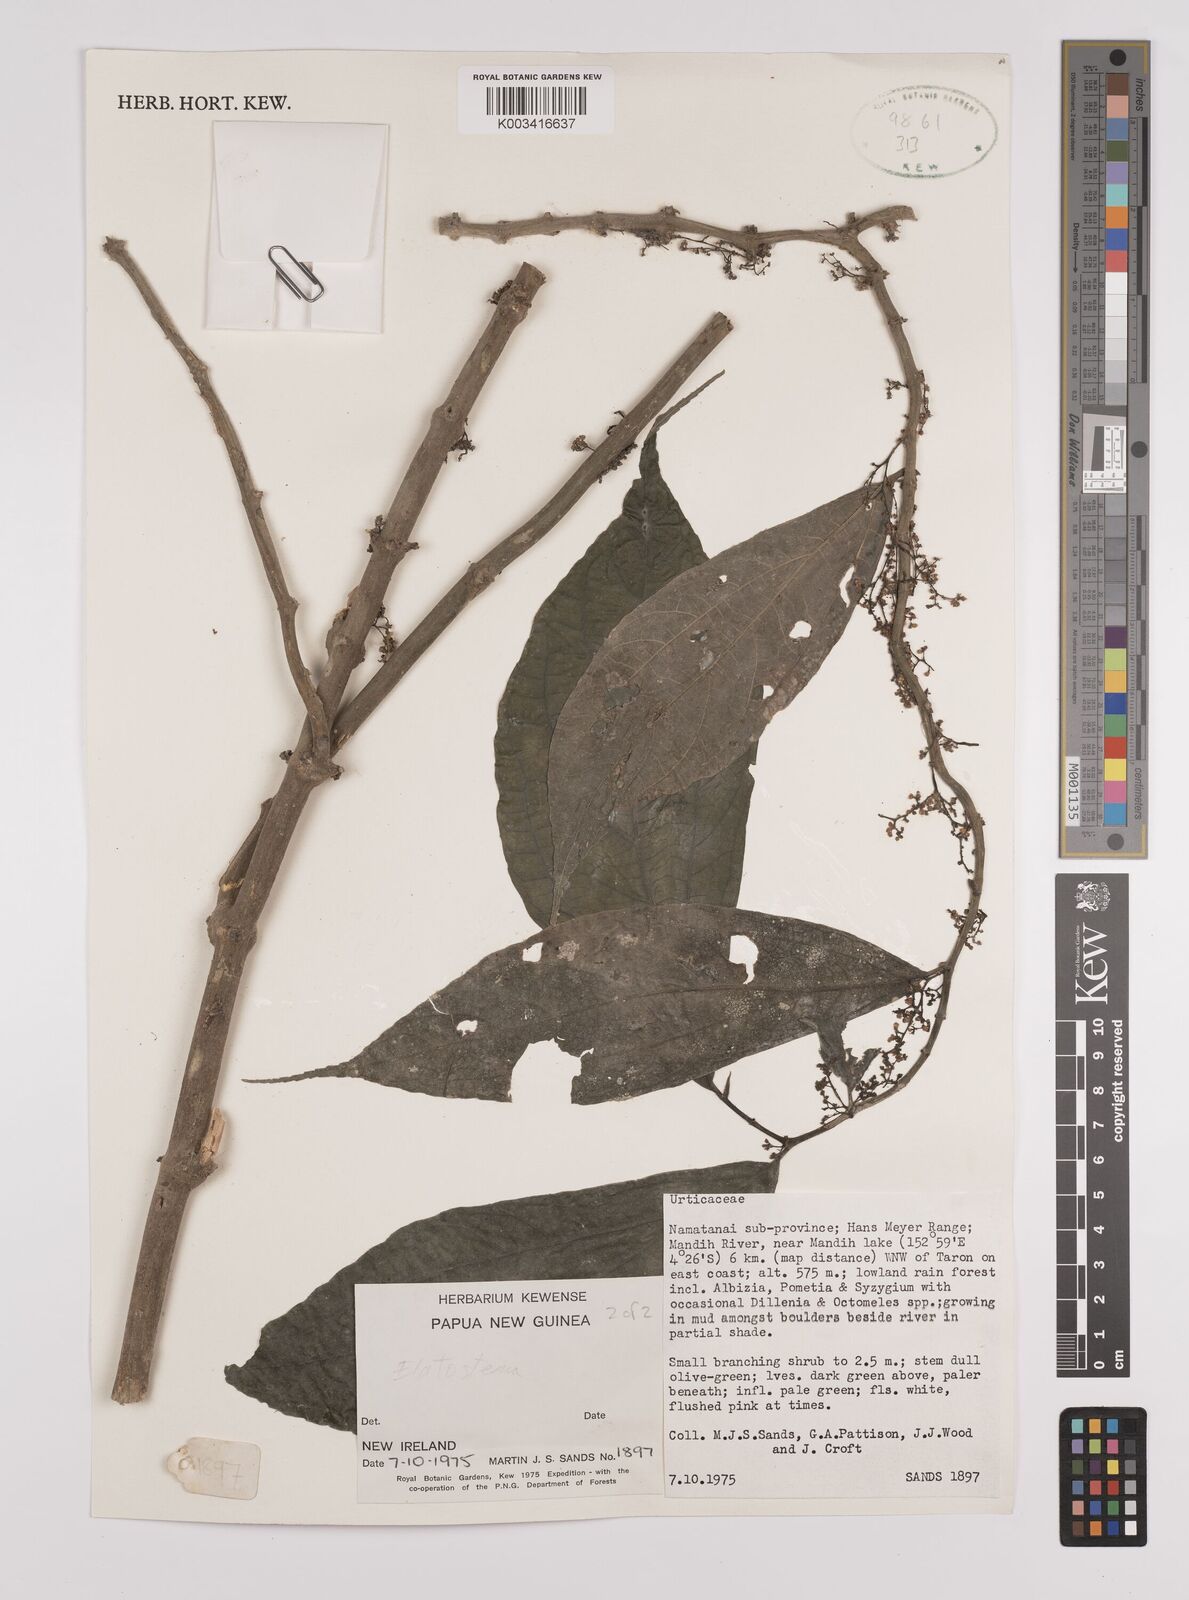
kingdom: Plantae
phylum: Tracheophyta
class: Magnoliopsida
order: Rosales
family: Urticaceae
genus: Elatostema
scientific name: Elatostema
